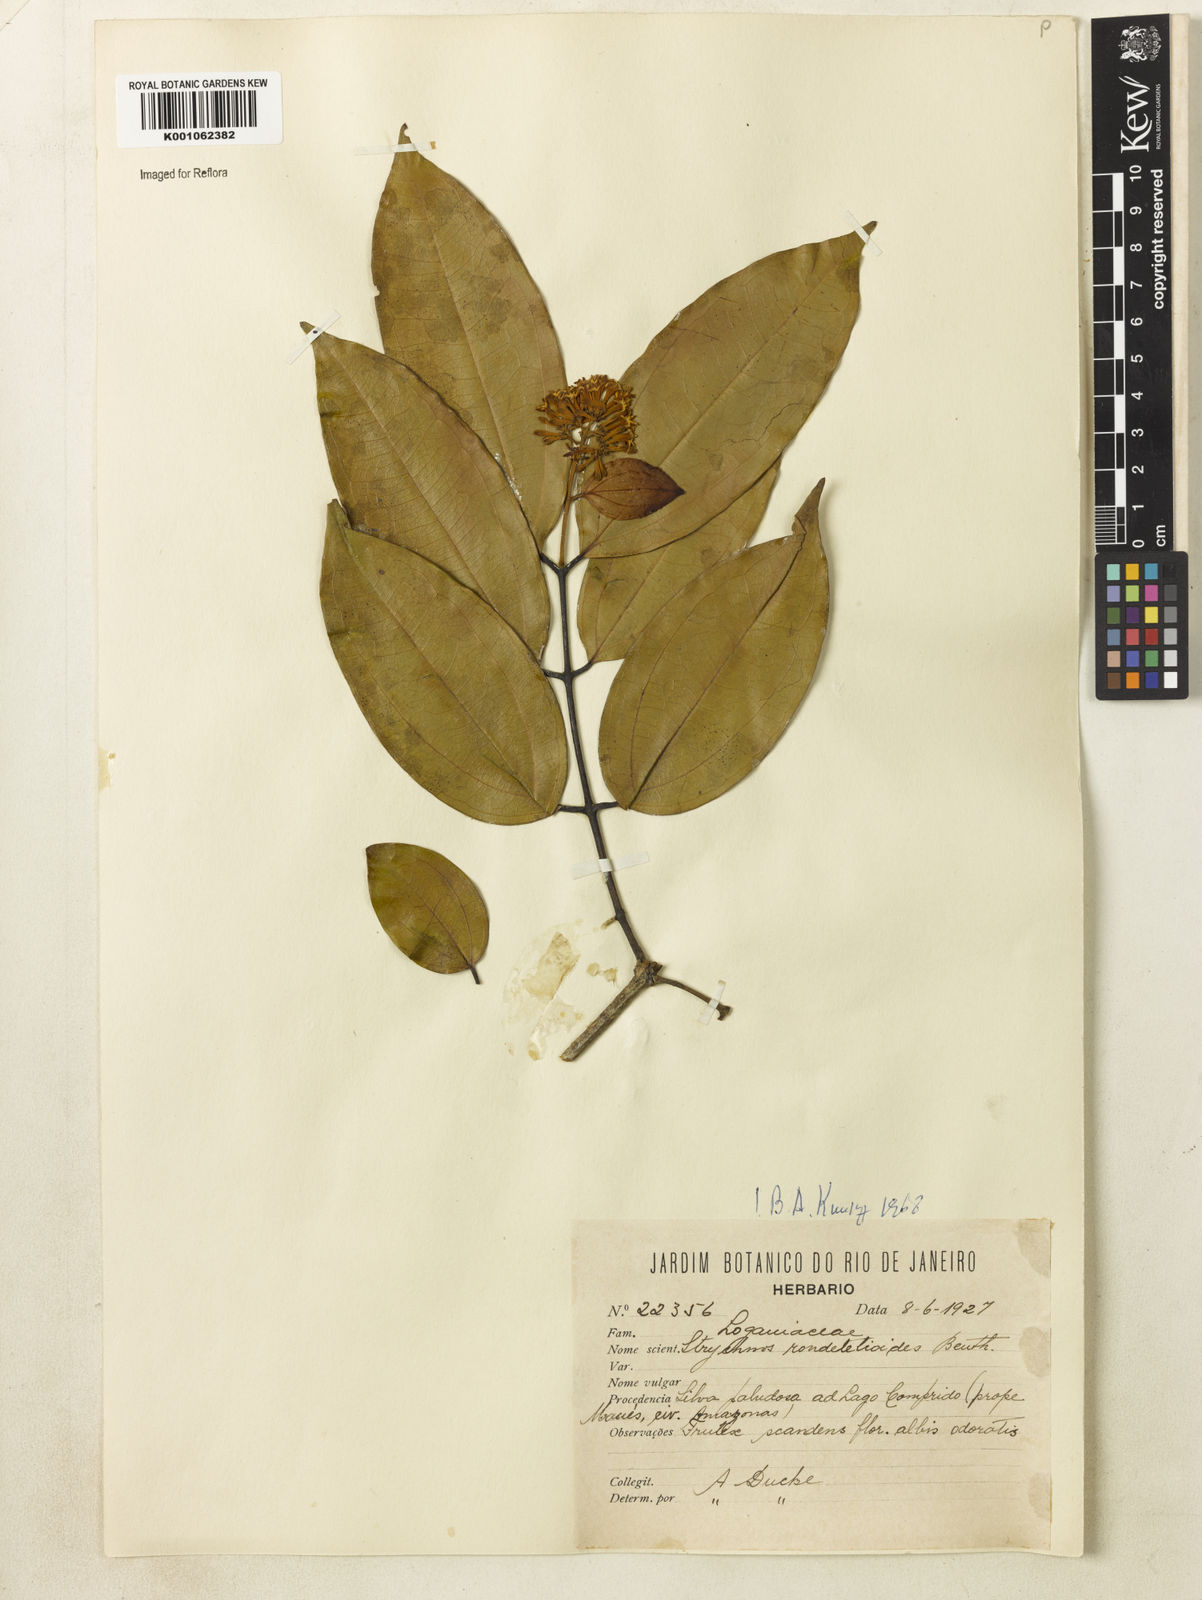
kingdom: Plantae
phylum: Tracheophyta
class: Magnoliopsida
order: Gentianales
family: Loganiaceae
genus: Strychnos
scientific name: Strychnos rondeletioides
